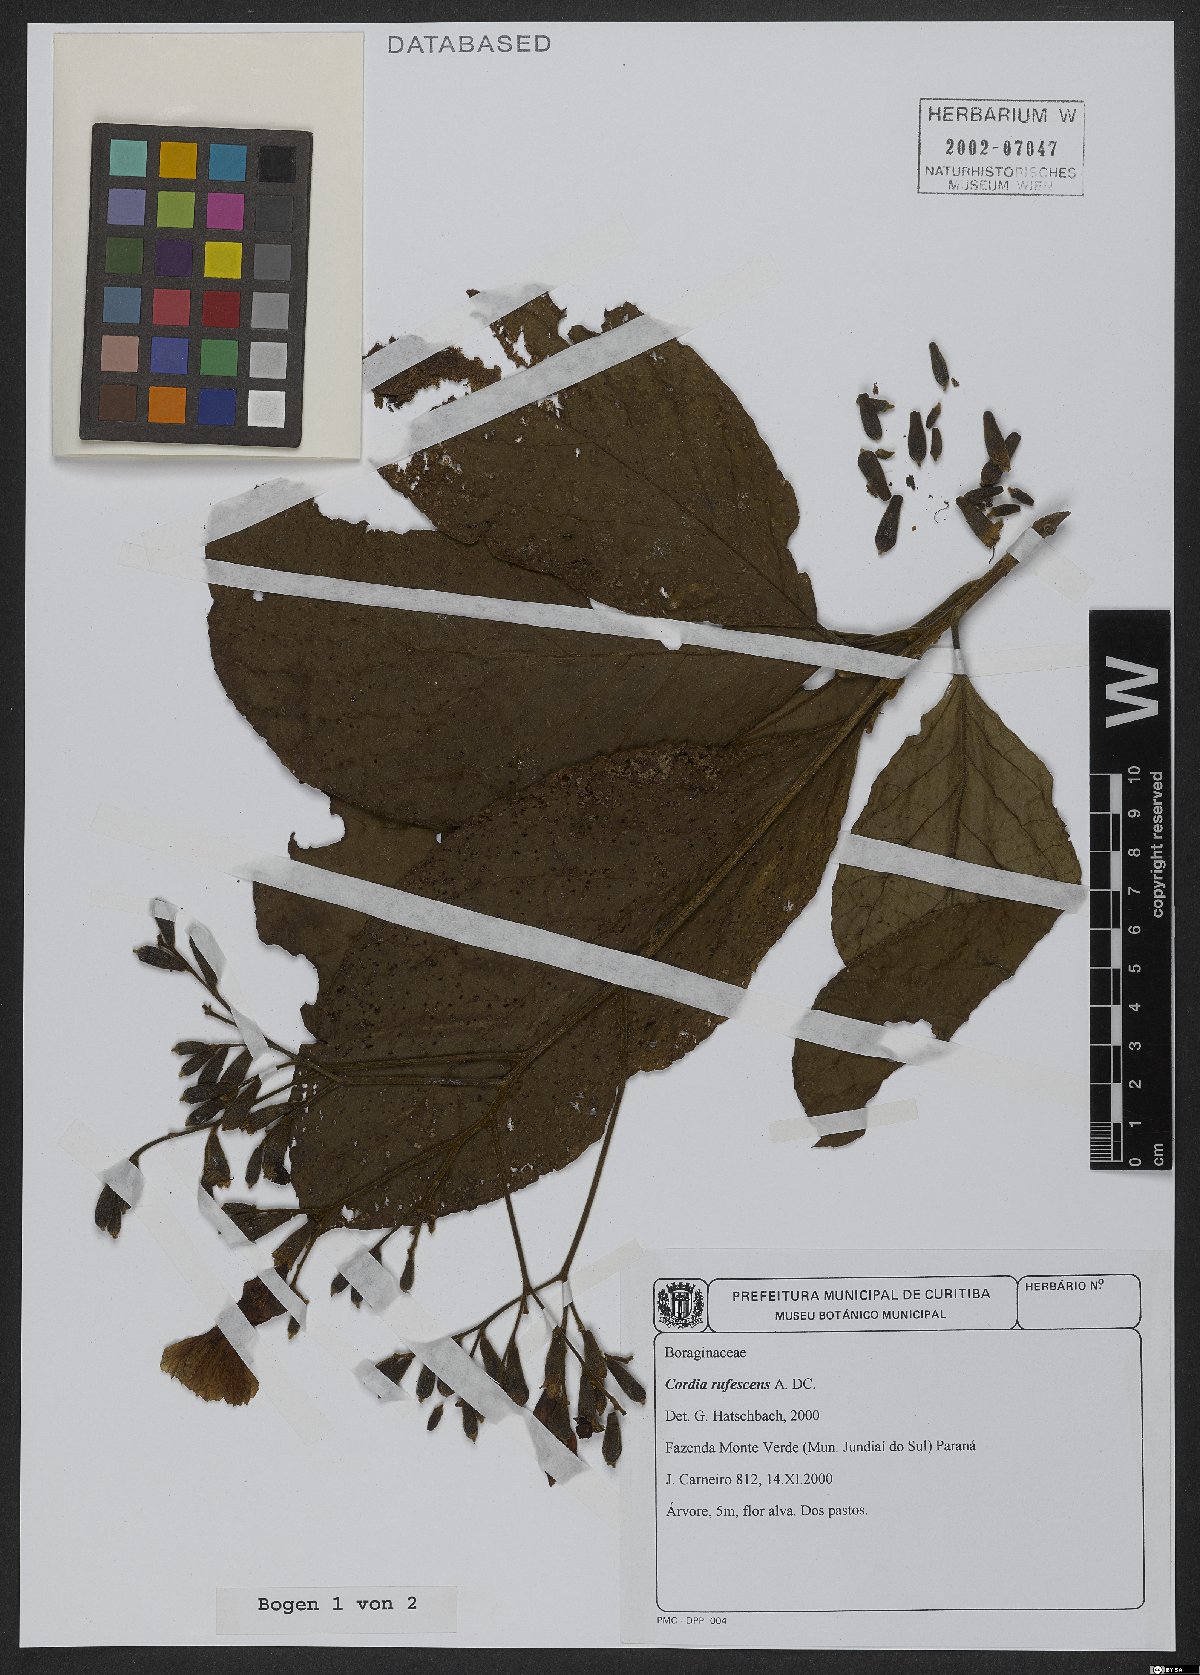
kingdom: Plantae
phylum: Tracheophyta
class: Magnoliopsida
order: Boraginales
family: Cordiaceae
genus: Cordia
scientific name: Cordia rufescens
